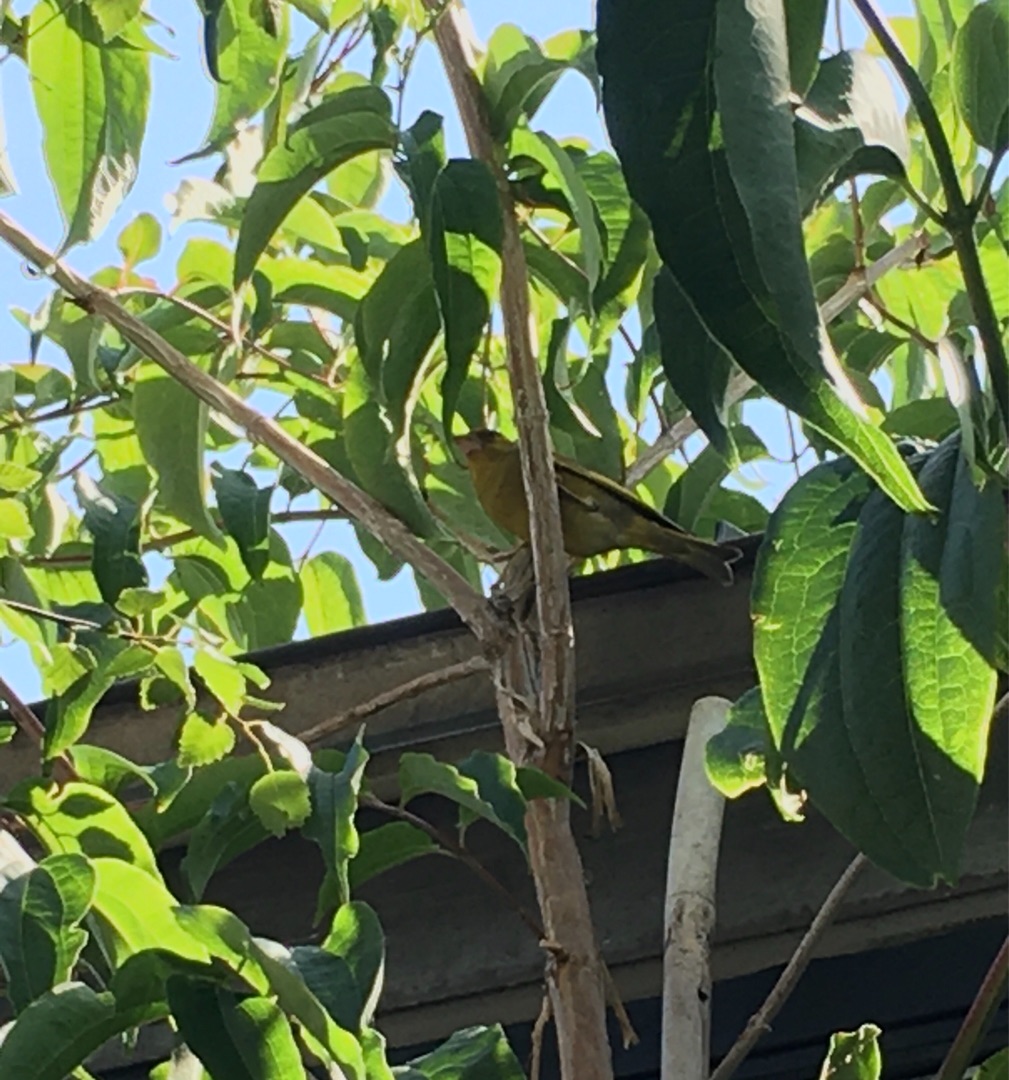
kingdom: Plantae
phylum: Tracheophyta
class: Liliopsida
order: Poales
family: Poaceae
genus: Chloris
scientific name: Chloris chloris
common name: Grønirisk
